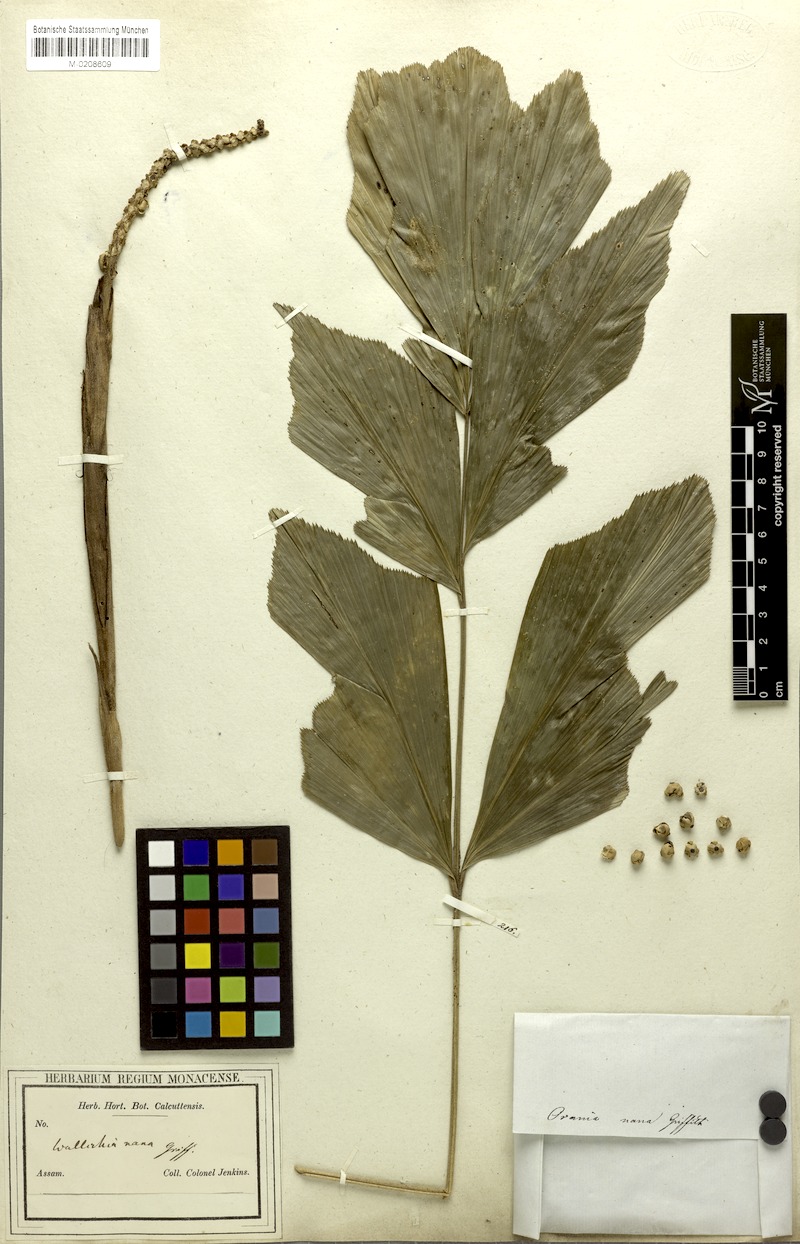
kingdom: Plantae
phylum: Tracheophyta
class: Liliopsida
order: Arecales
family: Arecaceae
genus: Wallichia
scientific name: Wallichia nana
